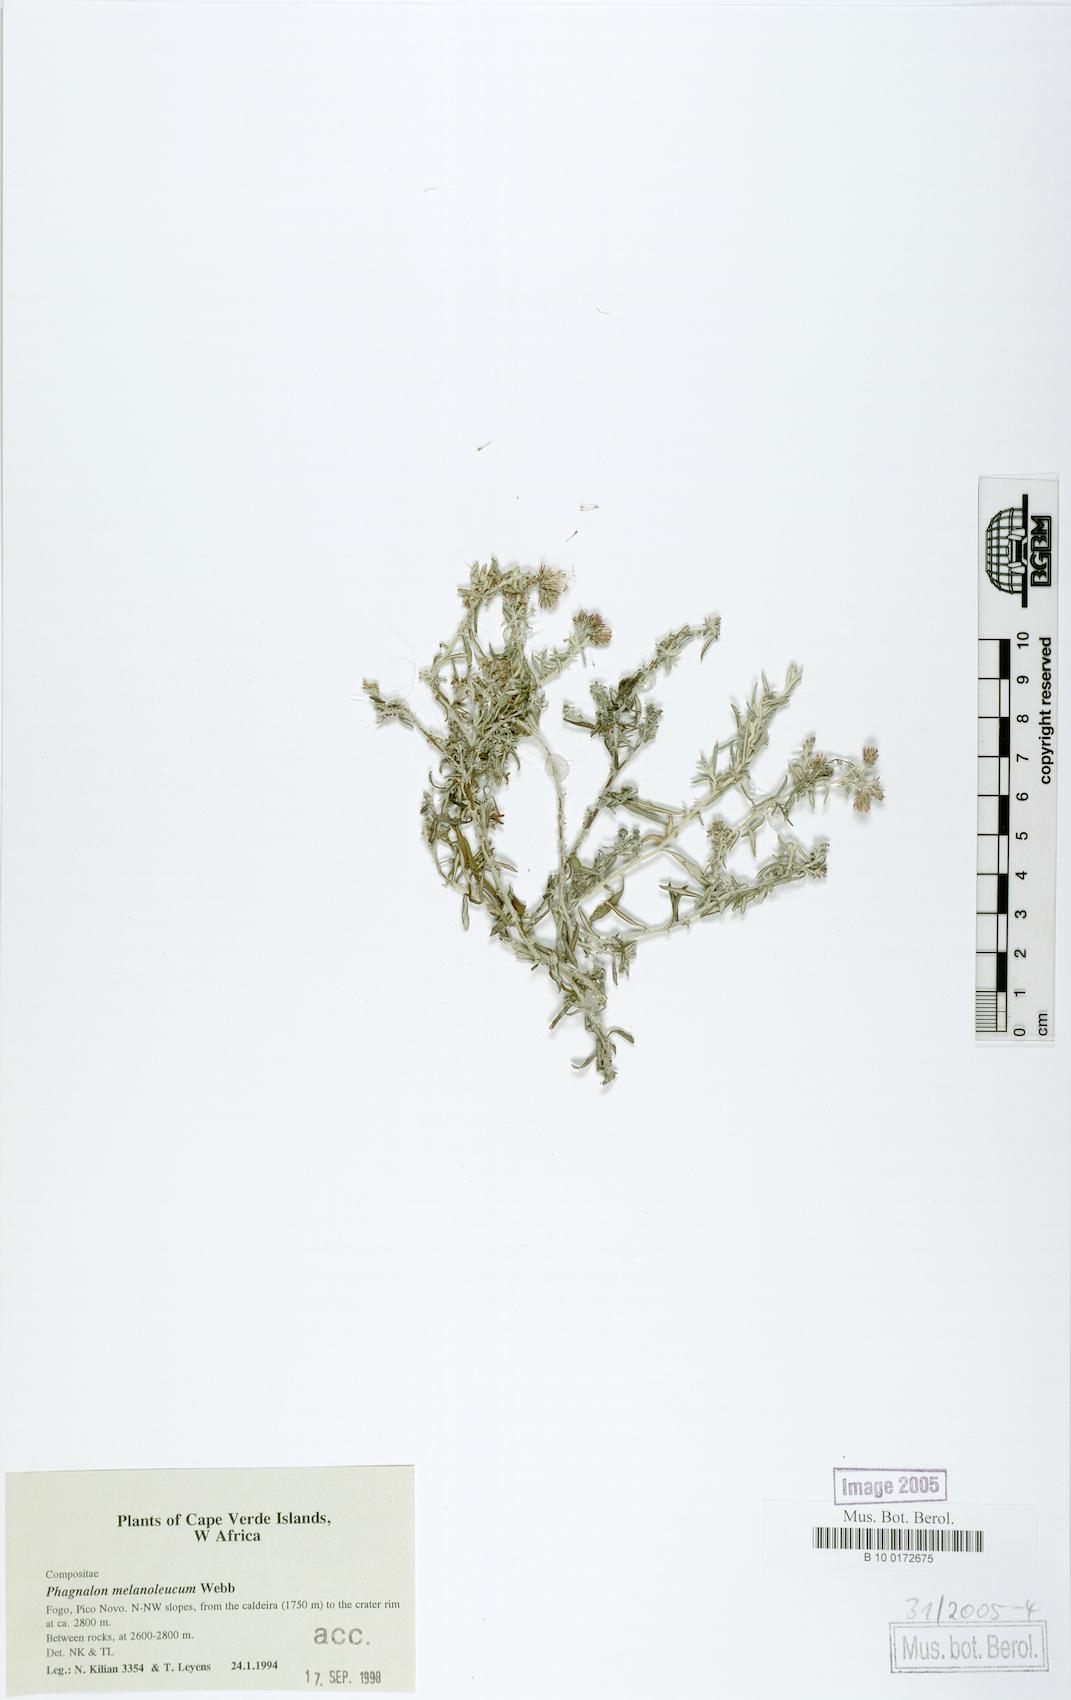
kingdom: Plantae
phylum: Tracheophyta
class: Magnoliopsida
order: Asterales
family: Asteraceae
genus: Phagnalon
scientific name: Phagnalon melanoleucum
